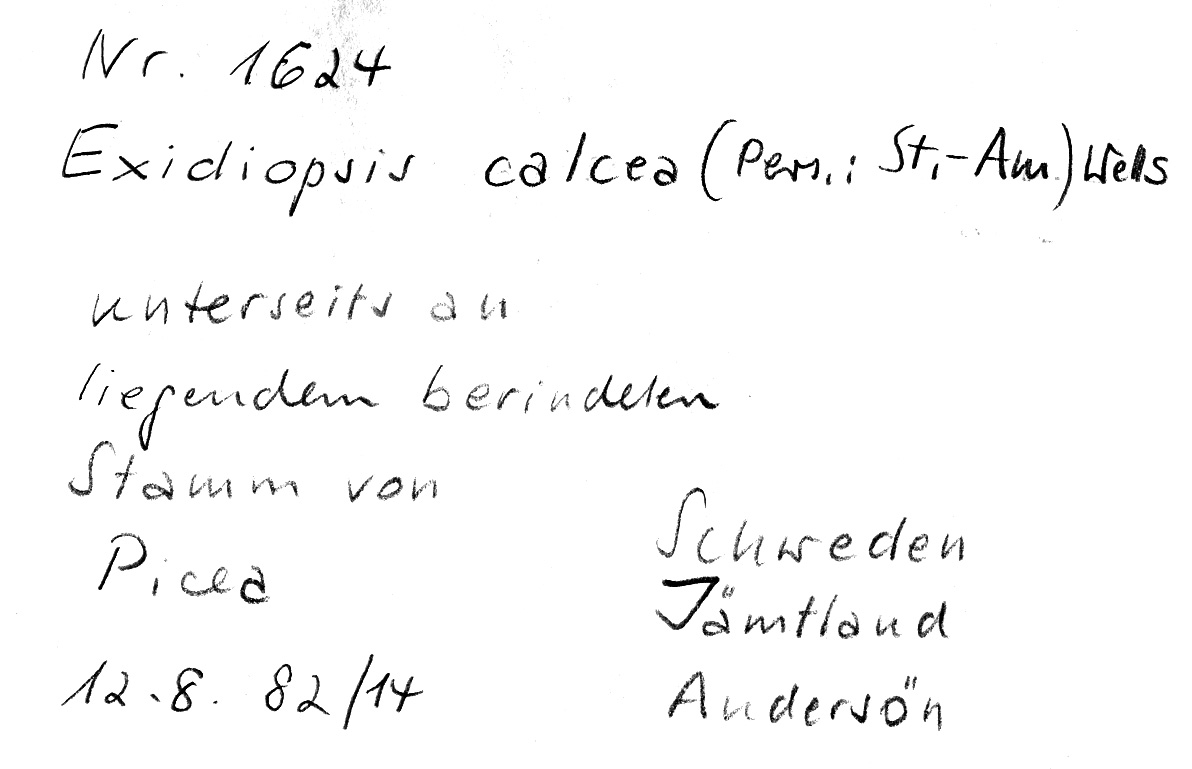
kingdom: Fungi
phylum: Basidiomycota
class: Agaricomycetes
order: Auriculariales
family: Auriculariaceae
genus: Alloexidiopsis
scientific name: Alloexidiopsis calcea
